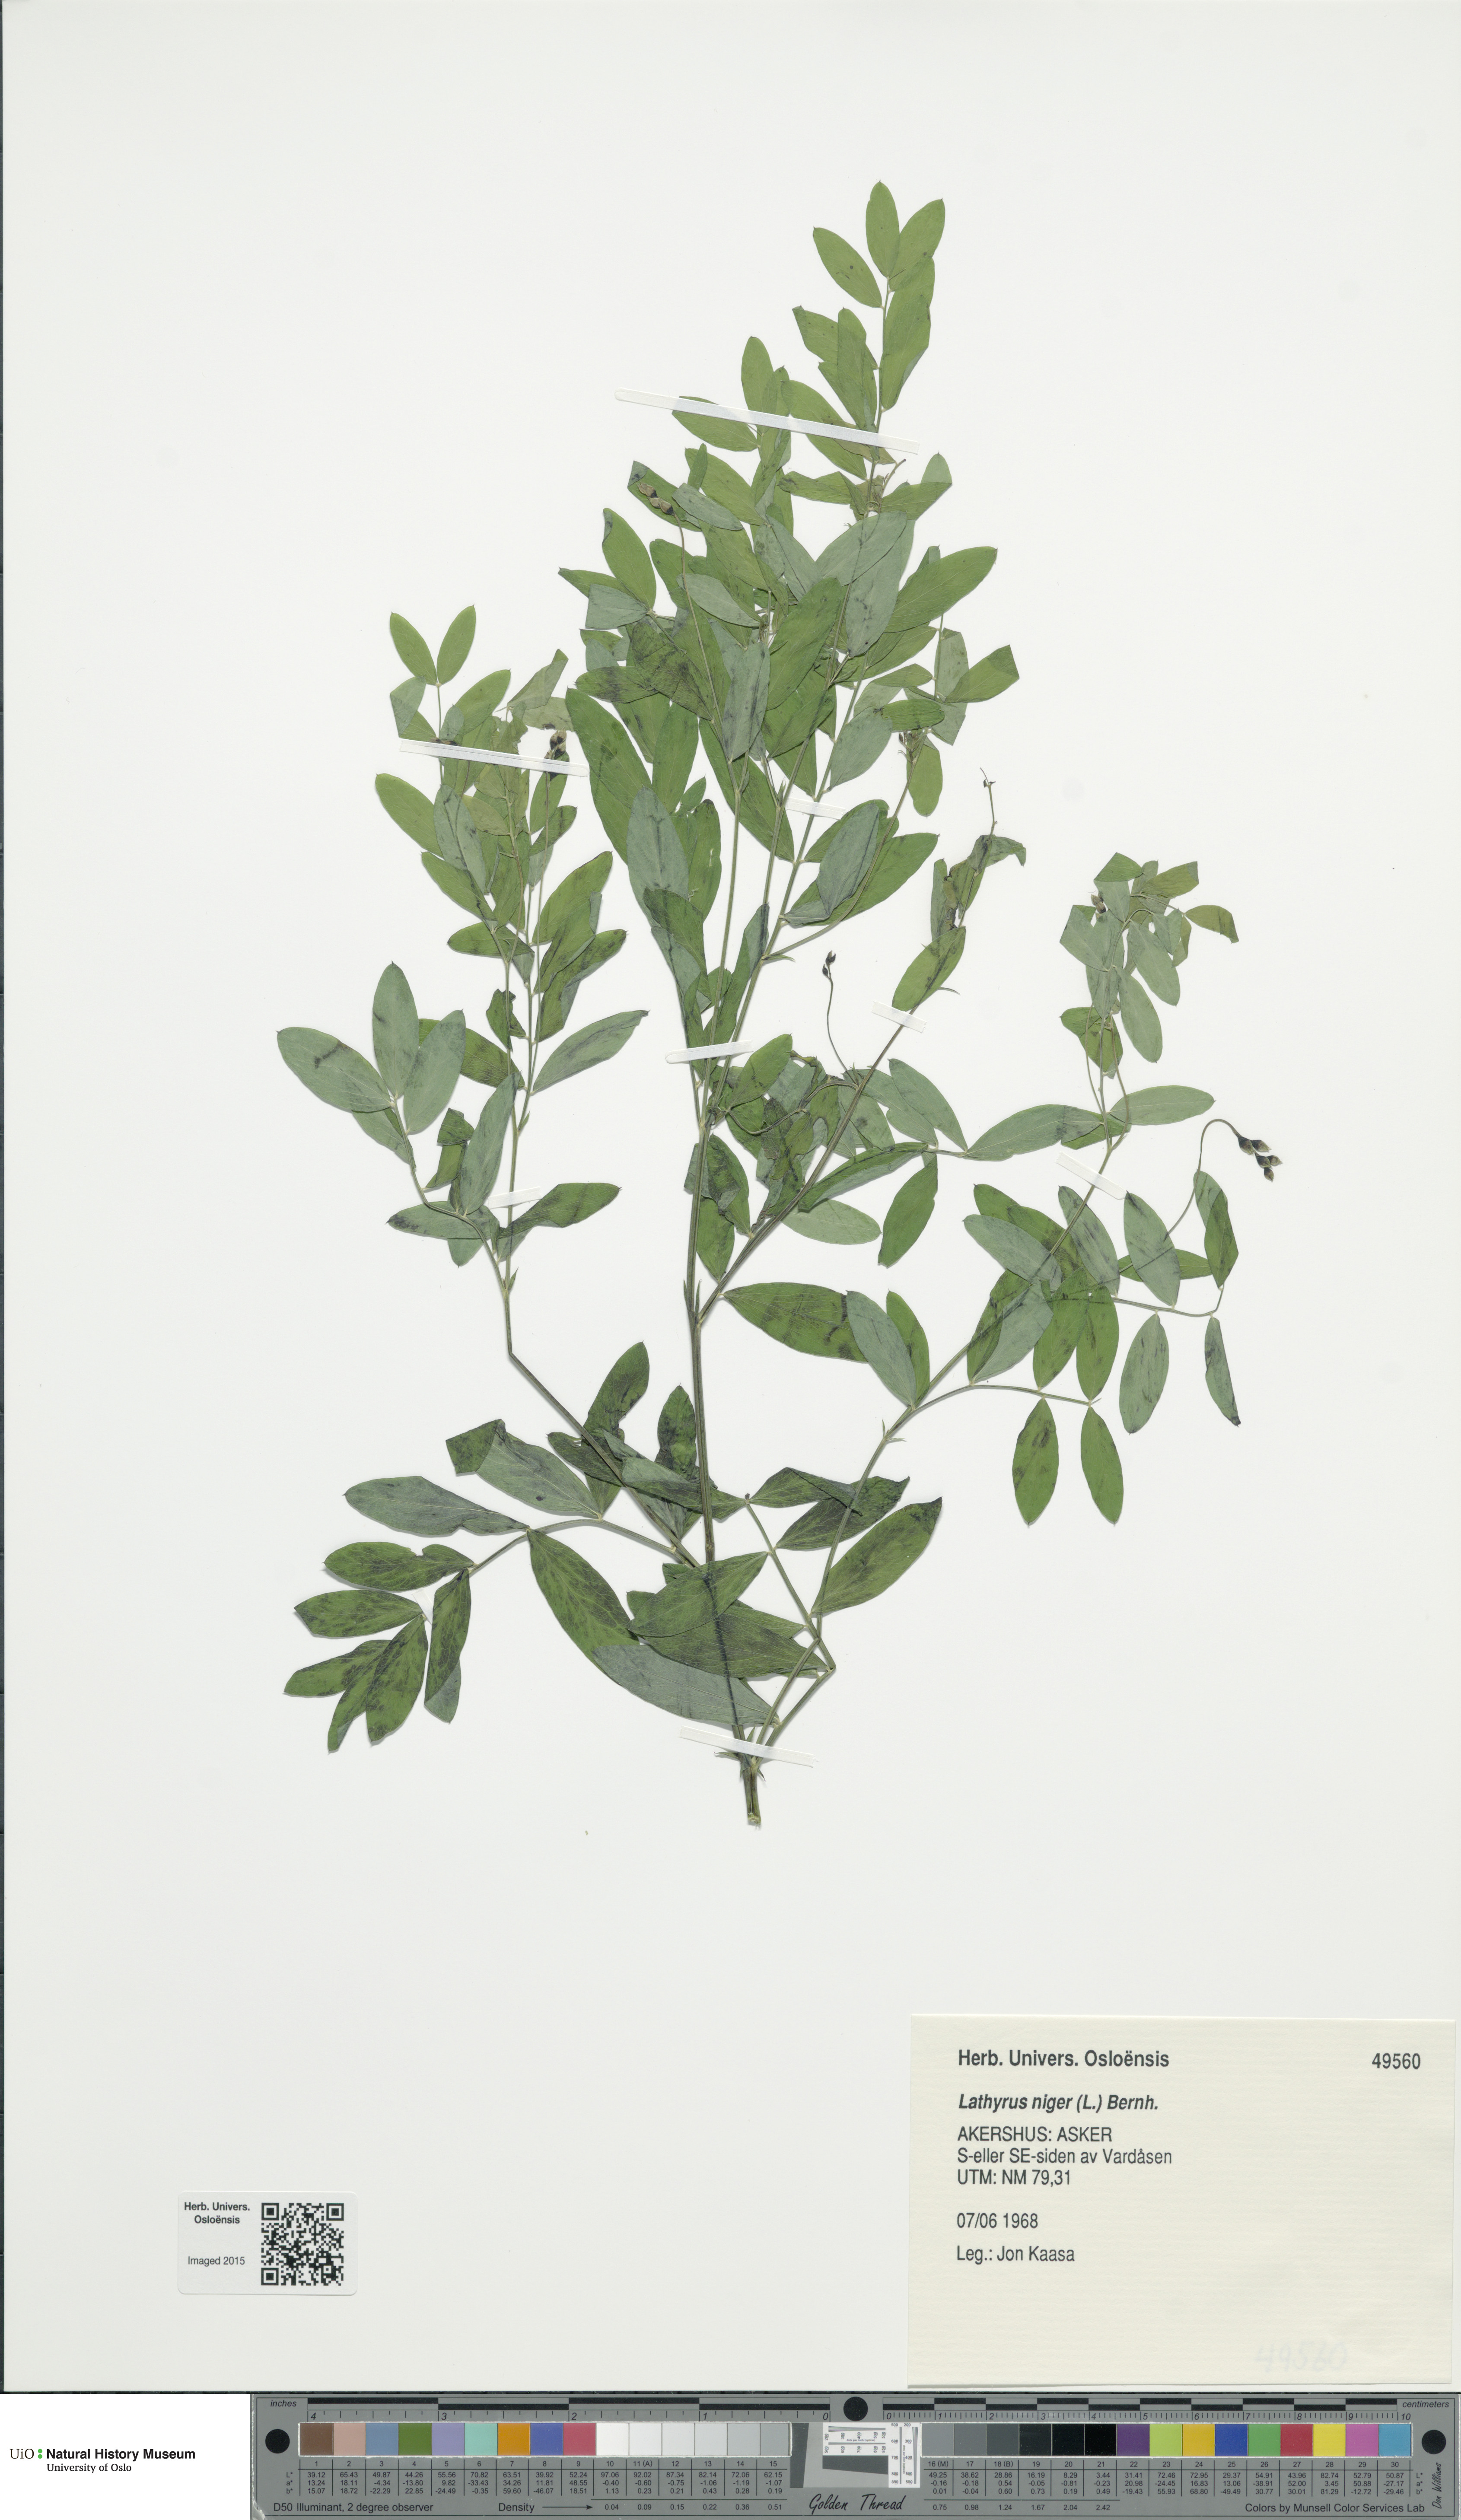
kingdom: Plantae
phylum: Tracheophyta
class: Magnoliopsida
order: Fabales
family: Fabaceae
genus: Lathyrus
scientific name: Lathyrus niger
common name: Black pea
